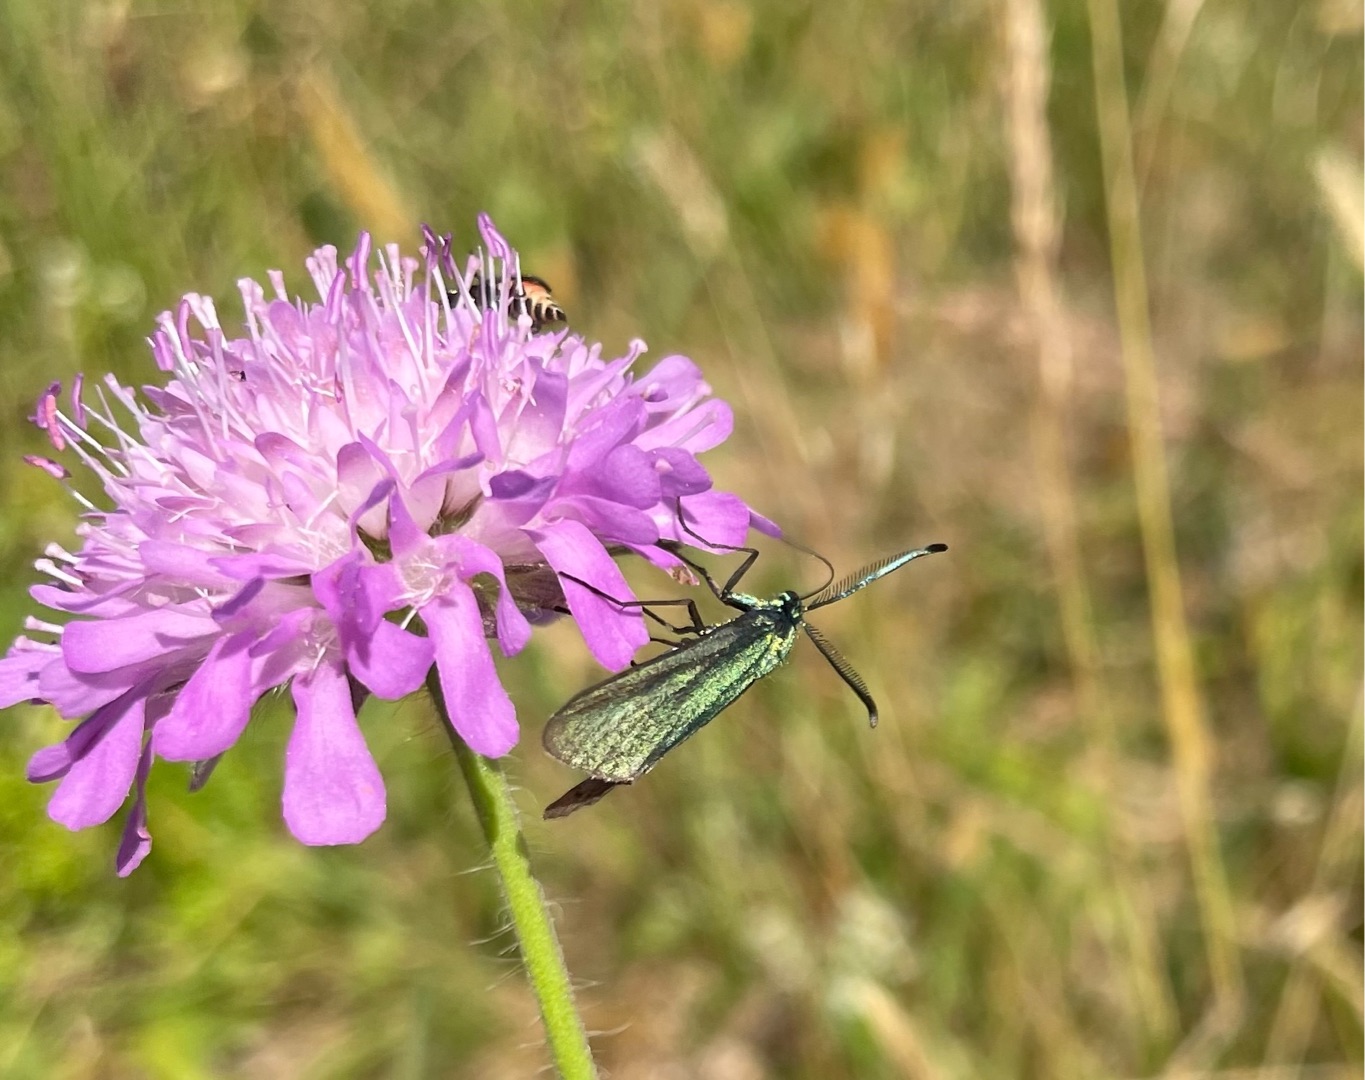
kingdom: Animalia
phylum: Arthropoda
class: Insecta
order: Lepidoptera
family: Zygaenidae
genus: Adscita
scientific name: Adscita statices
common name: Metalvinge
